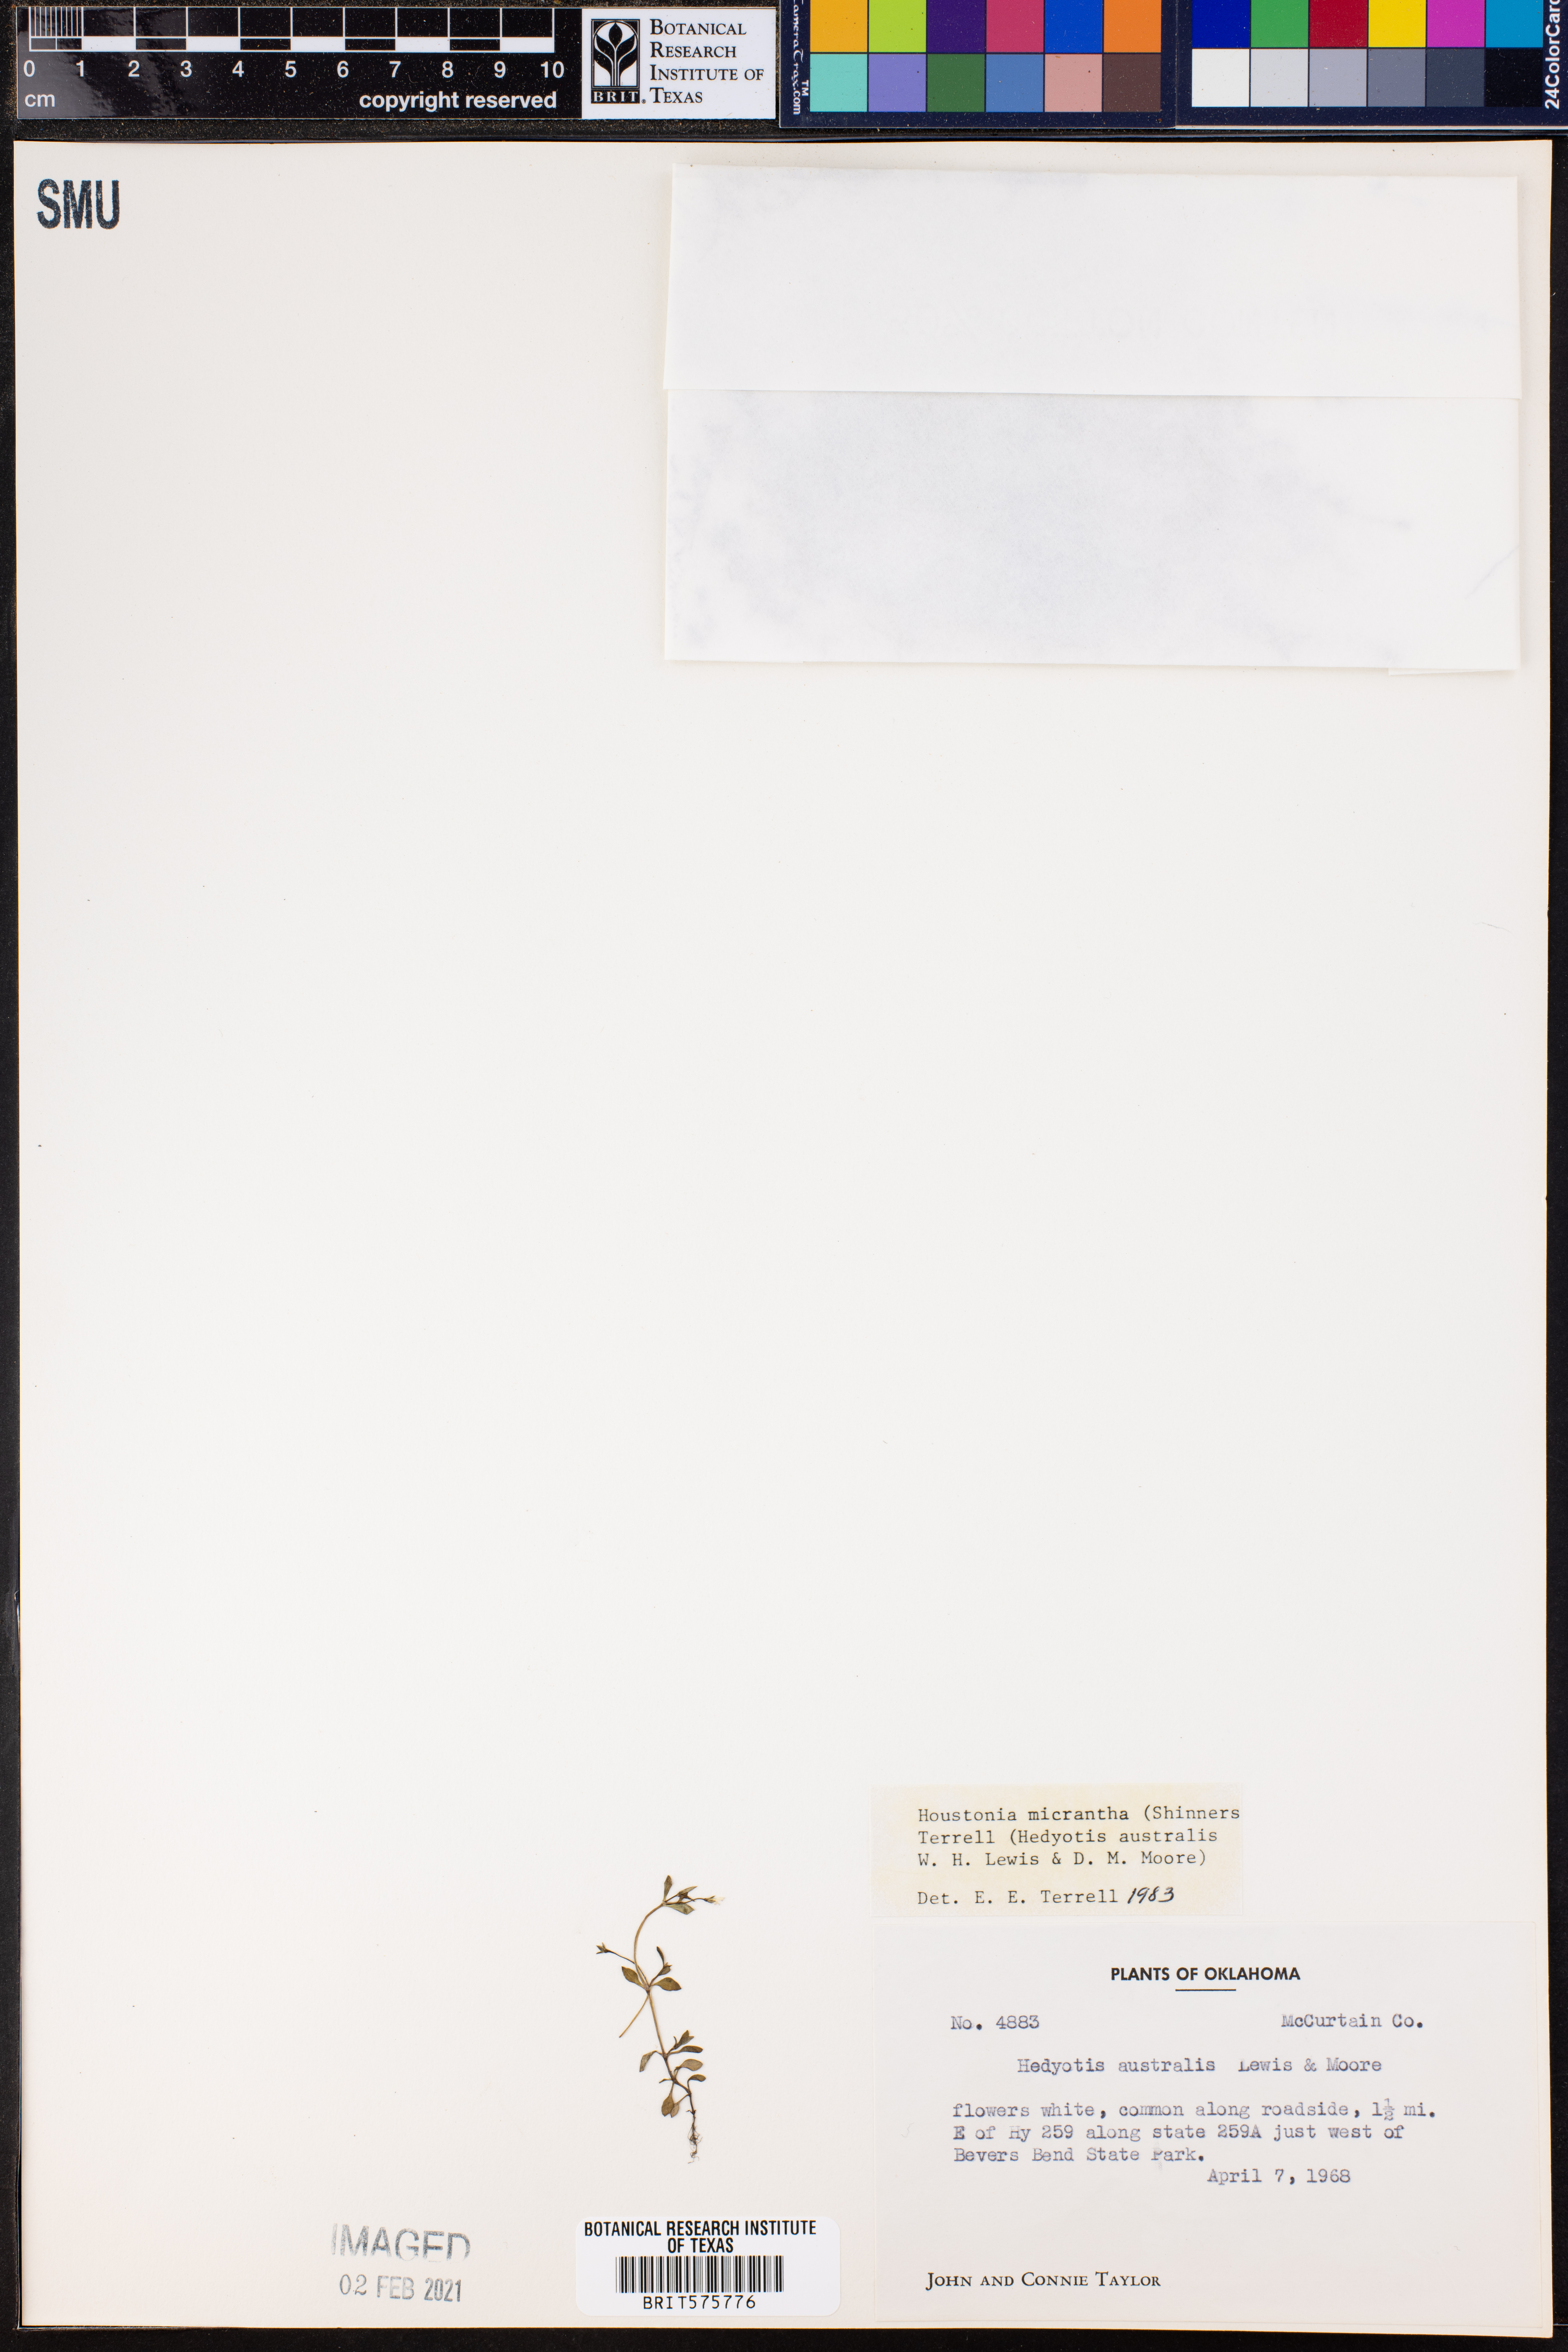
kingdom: Plantae
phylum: Tracheophyta
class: Magnoliopsida
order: Gentianales
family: Rubiaceae
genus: Houstonia
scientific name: Houstonia micrantha
